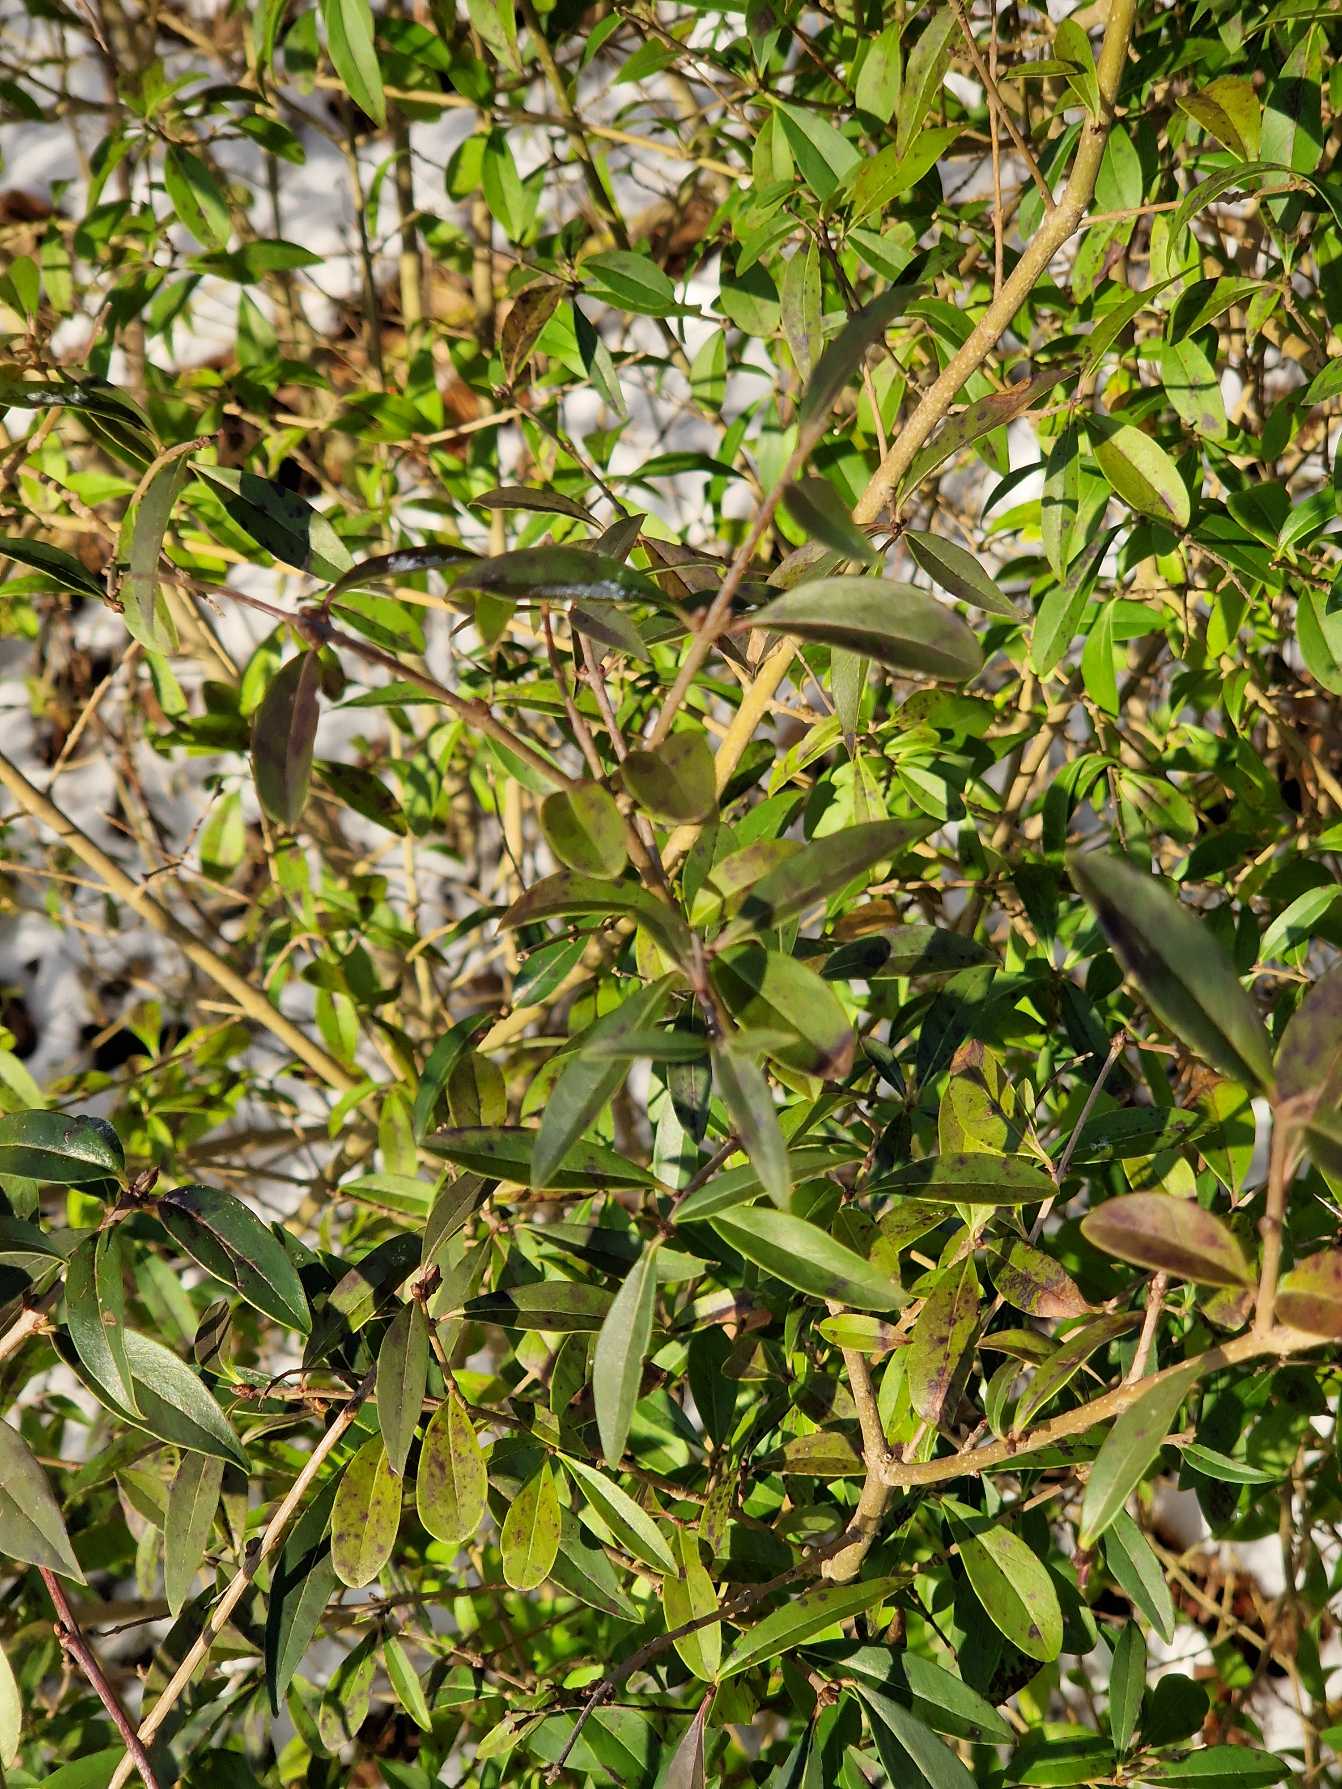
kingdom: Plantae
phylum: Tracheophyta
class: Magnoliopsida
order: Lamiales
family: Oleaceae
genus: Ligustrum
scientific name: Ligustrum vulgare
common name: Liguster
